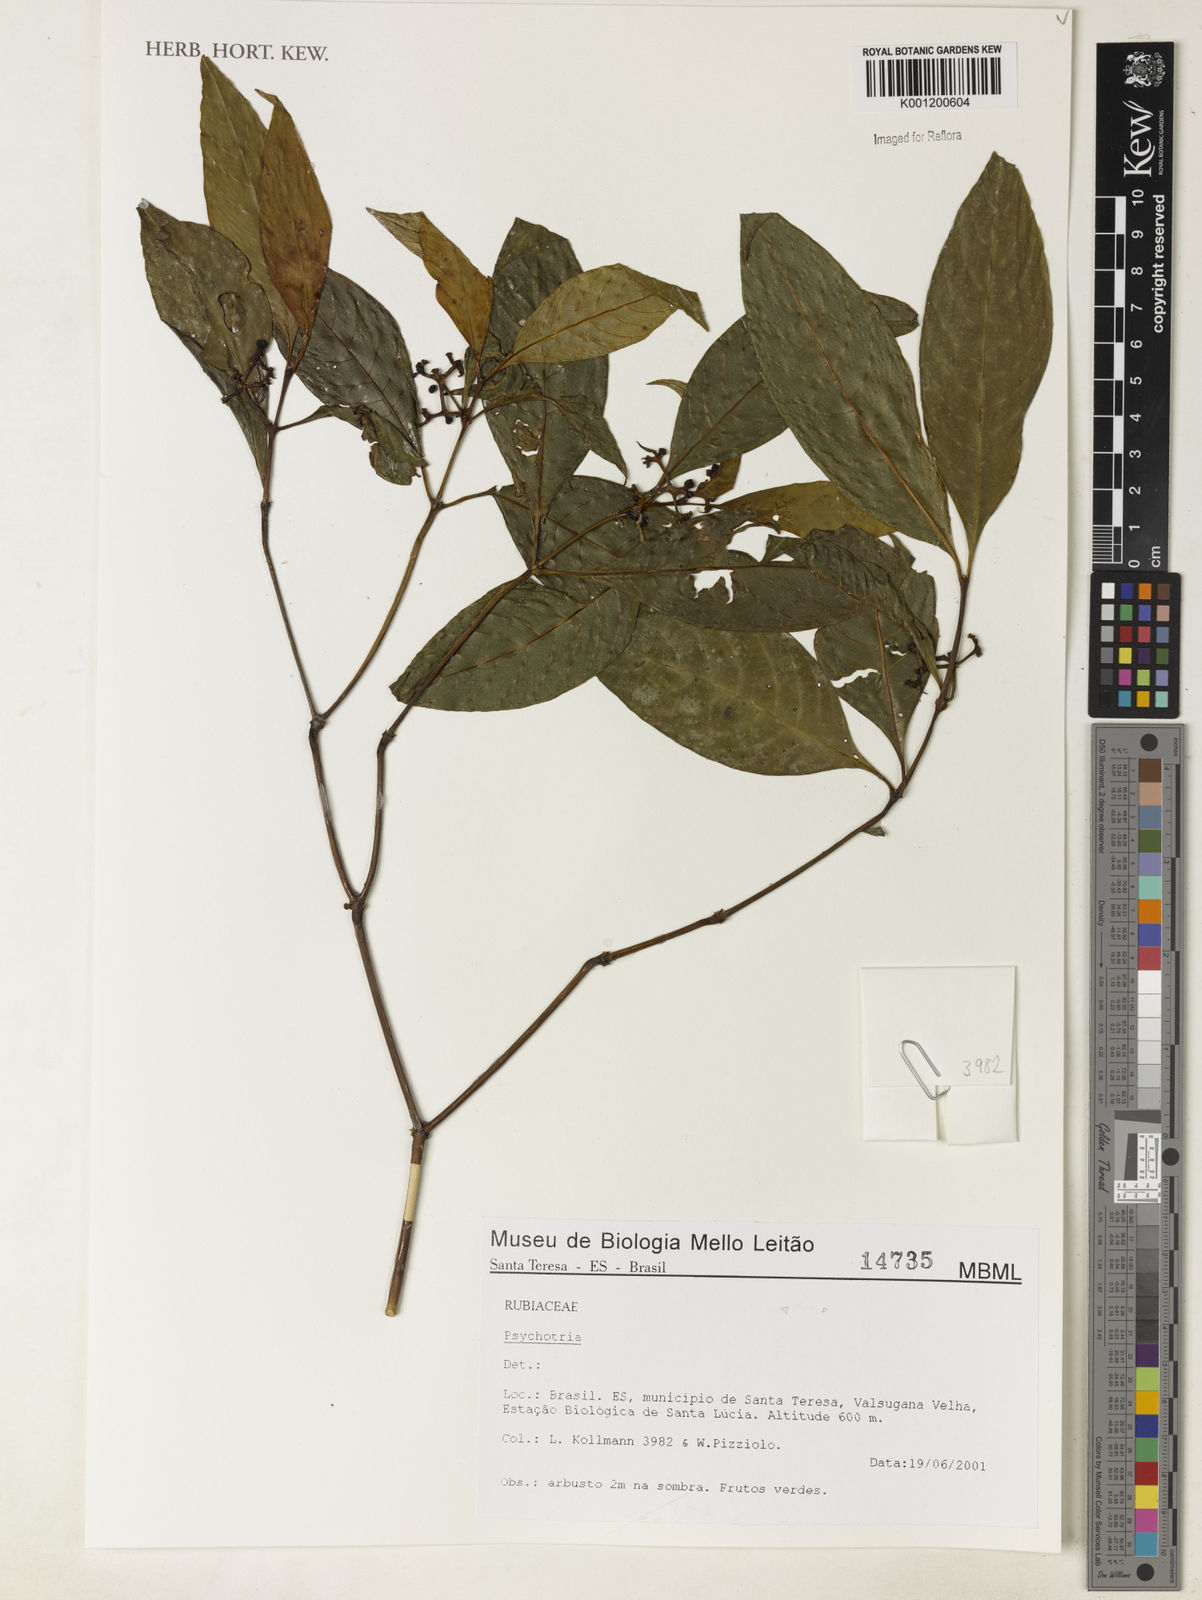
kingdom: Plantae
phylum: Tracheophyta
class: Magnoliopsida
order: Gentianales
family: Rubiaceae
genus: Psychotria
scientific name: Psychotria
